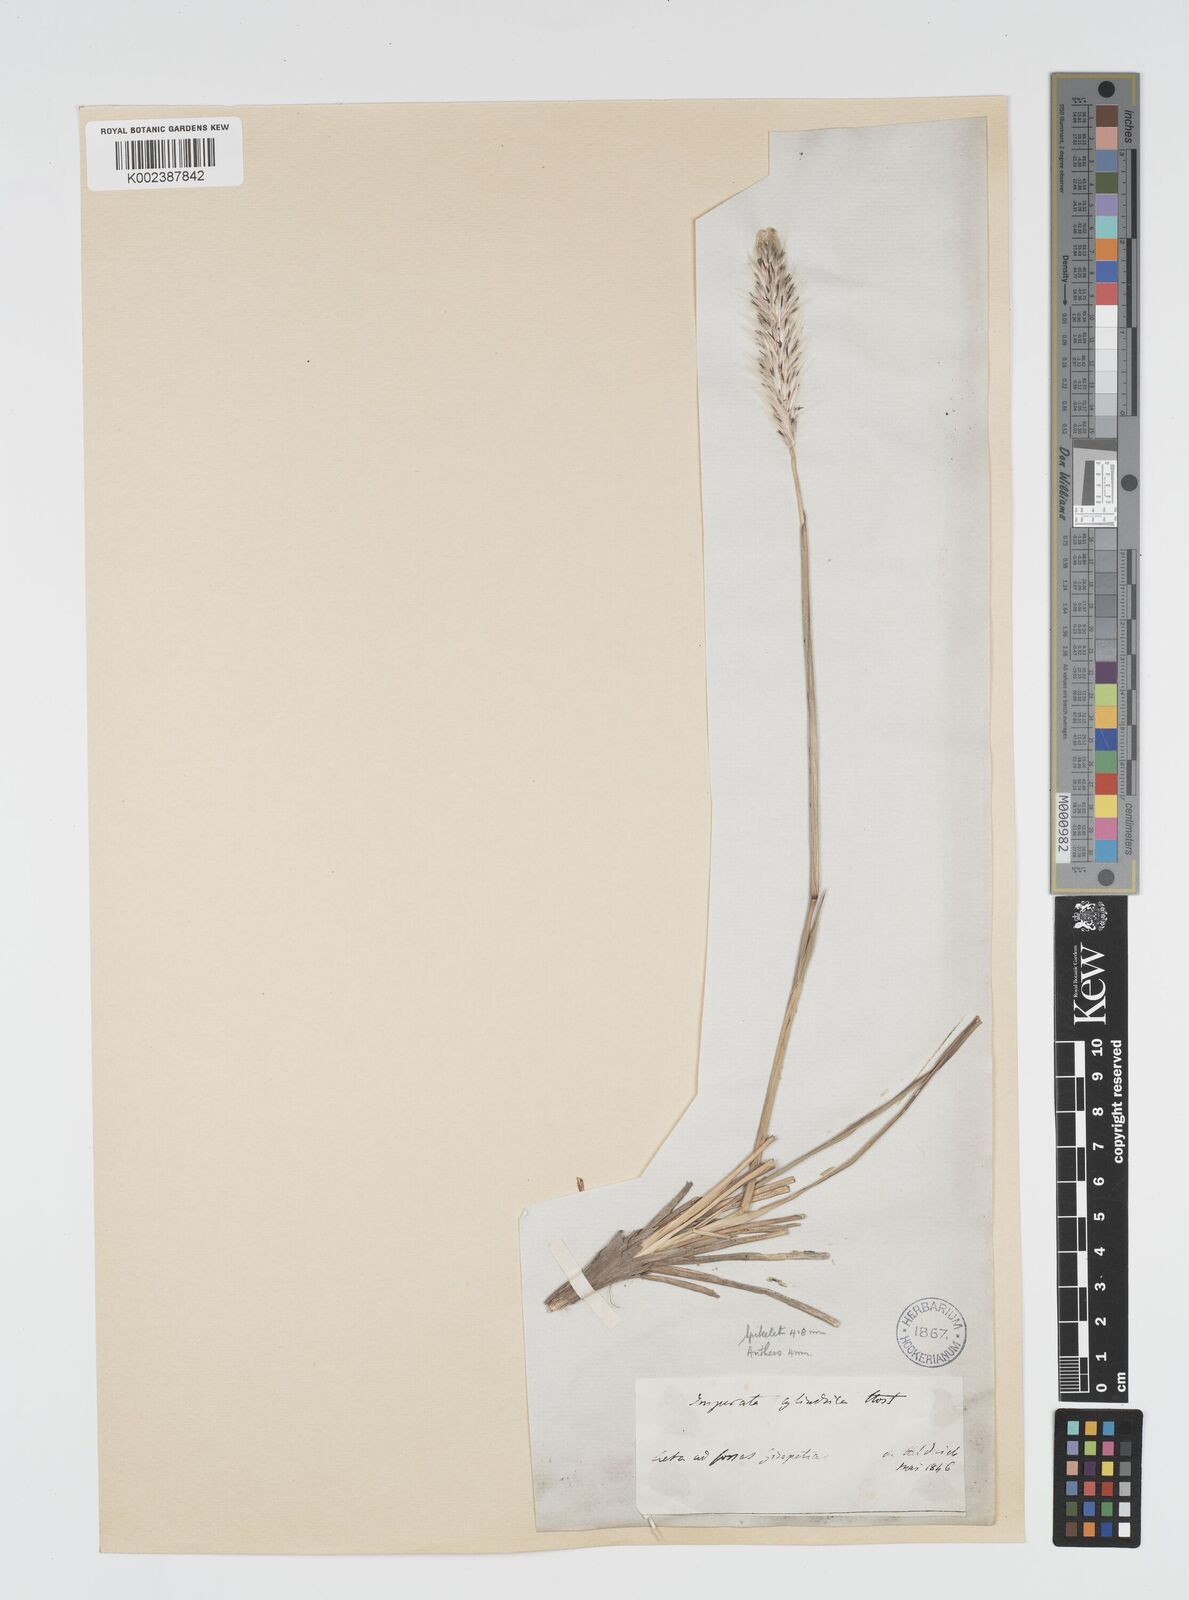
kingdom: Plantae
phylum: Tracheophyta
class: Liliopsida
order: Poales
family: Poaceae
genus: Imperata
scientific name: Imperata cylindrica
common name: Cogongrass
